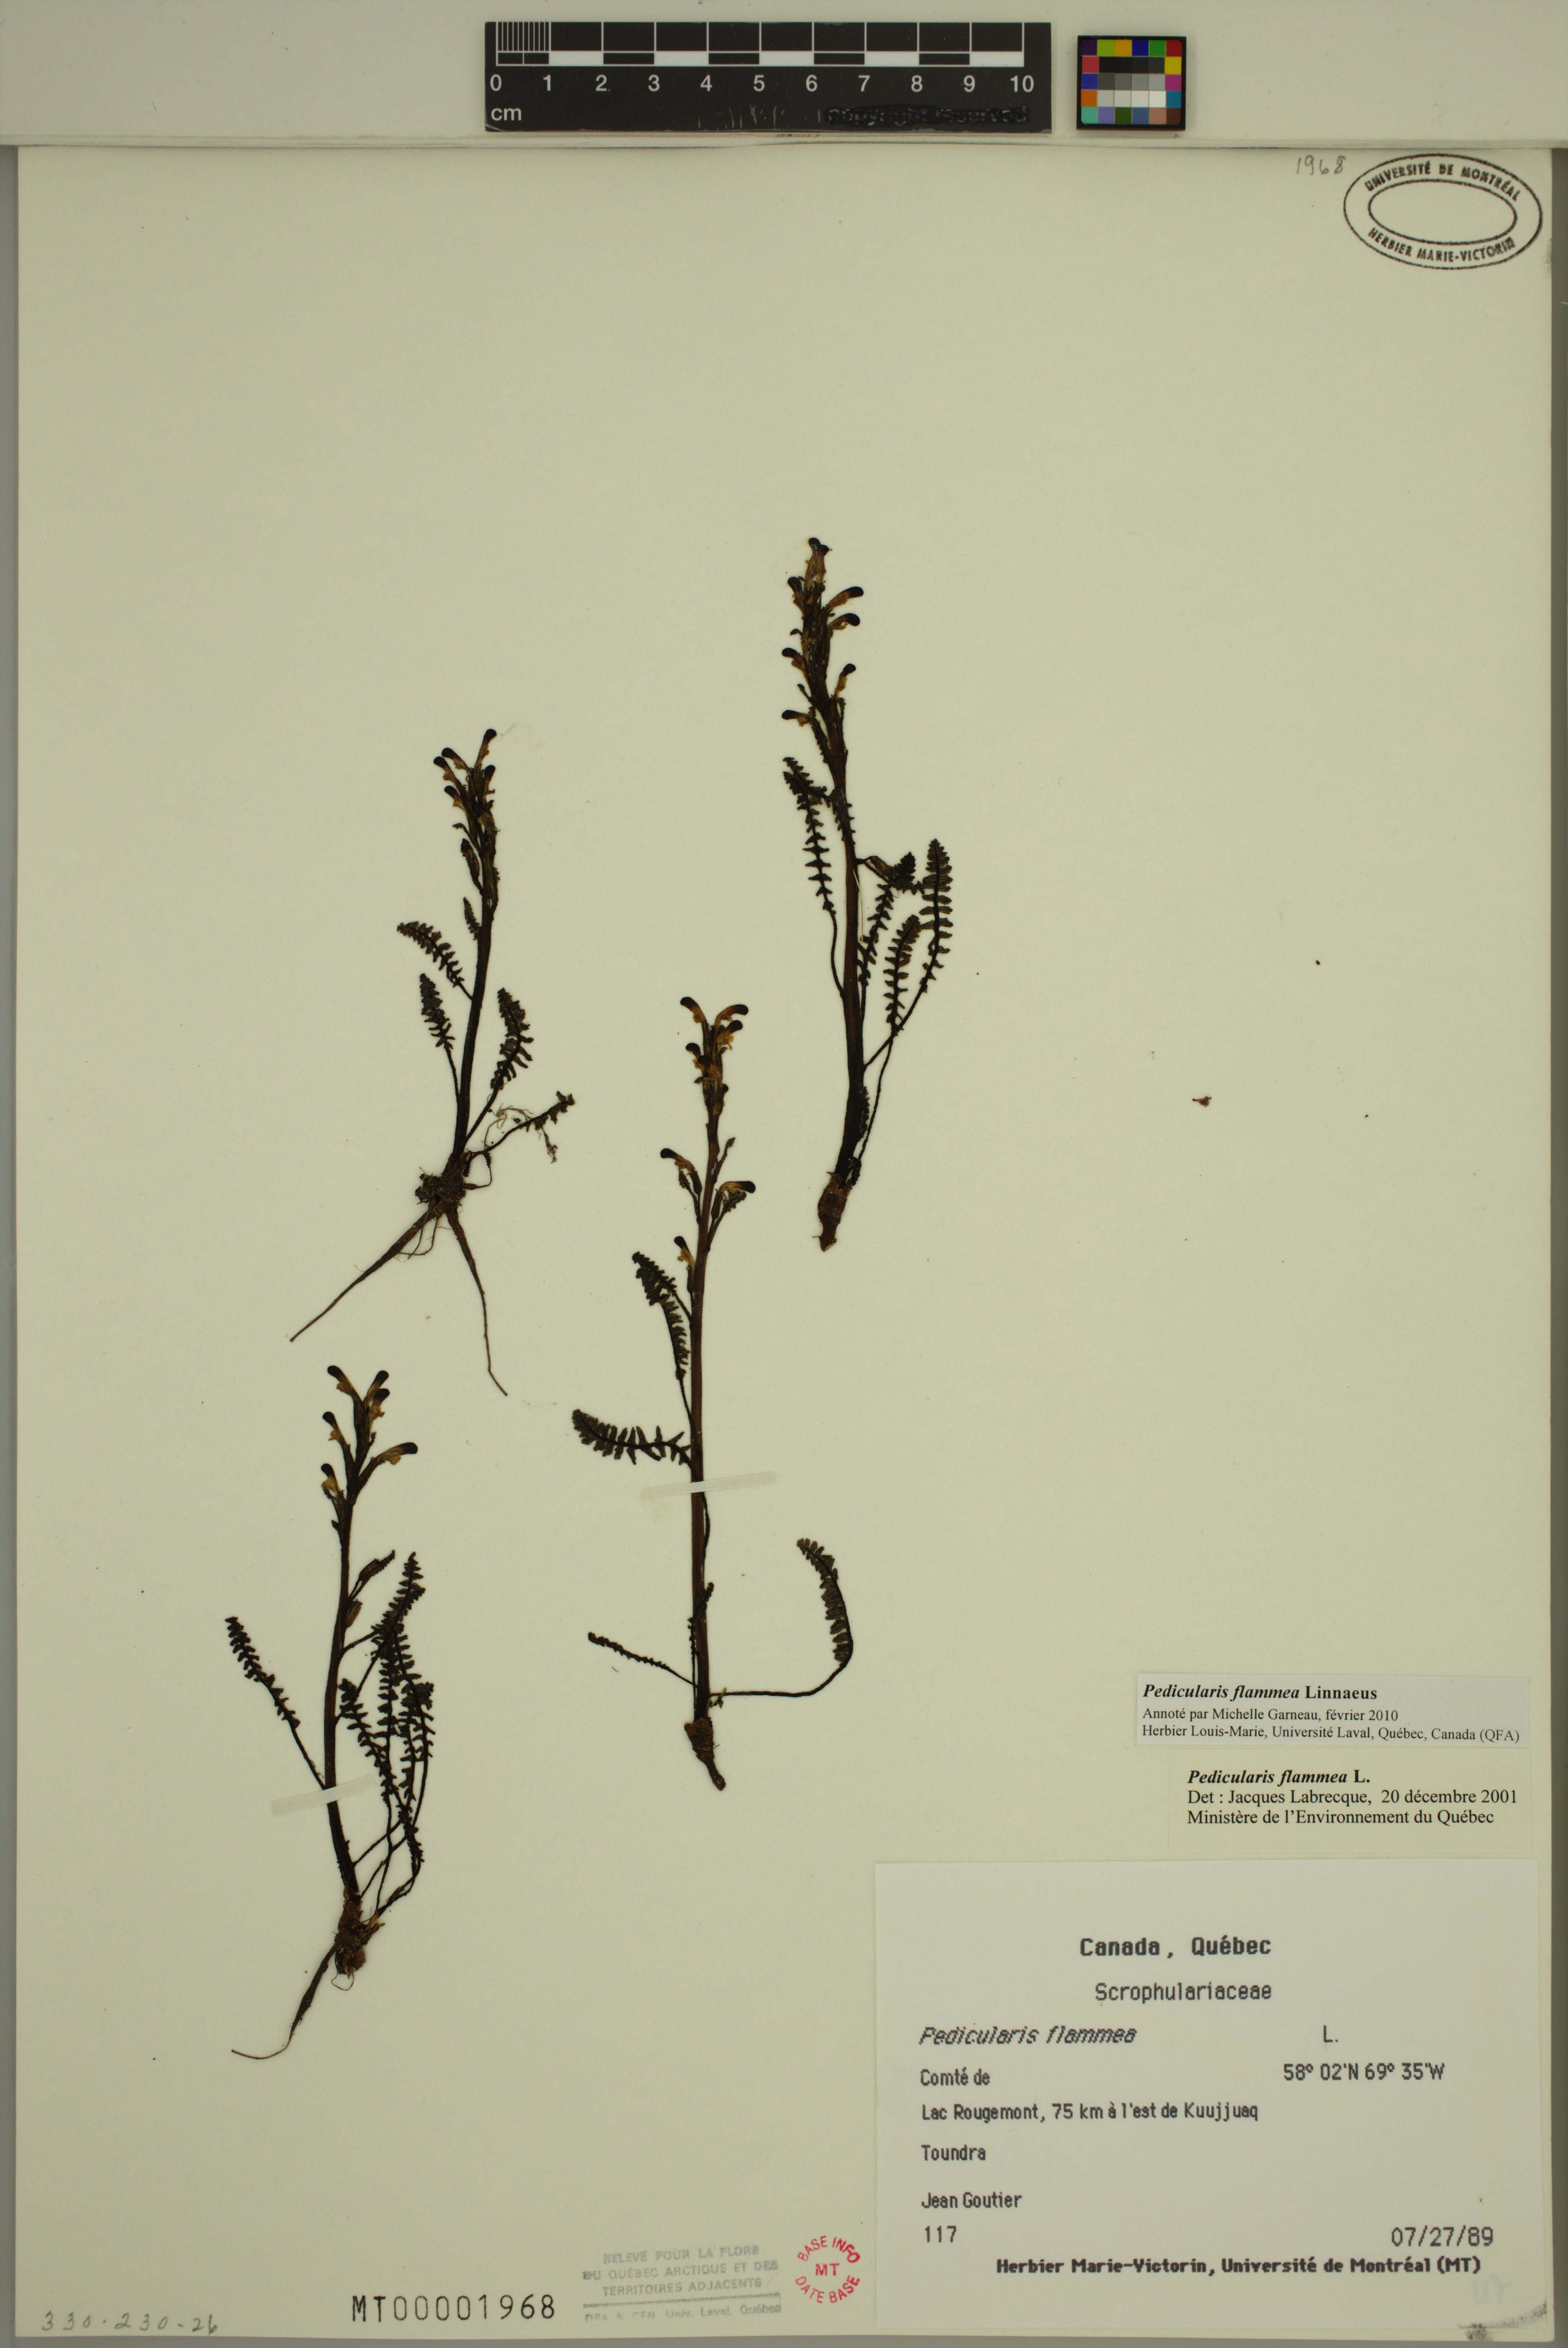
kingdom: Plantae
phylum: Tracheophyta
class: Magnoliopsida
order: Lamiales
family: Orobanchaceae
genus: Pedicularis
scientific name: Pedicularis flammea
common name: Flame-coloured lousewort
